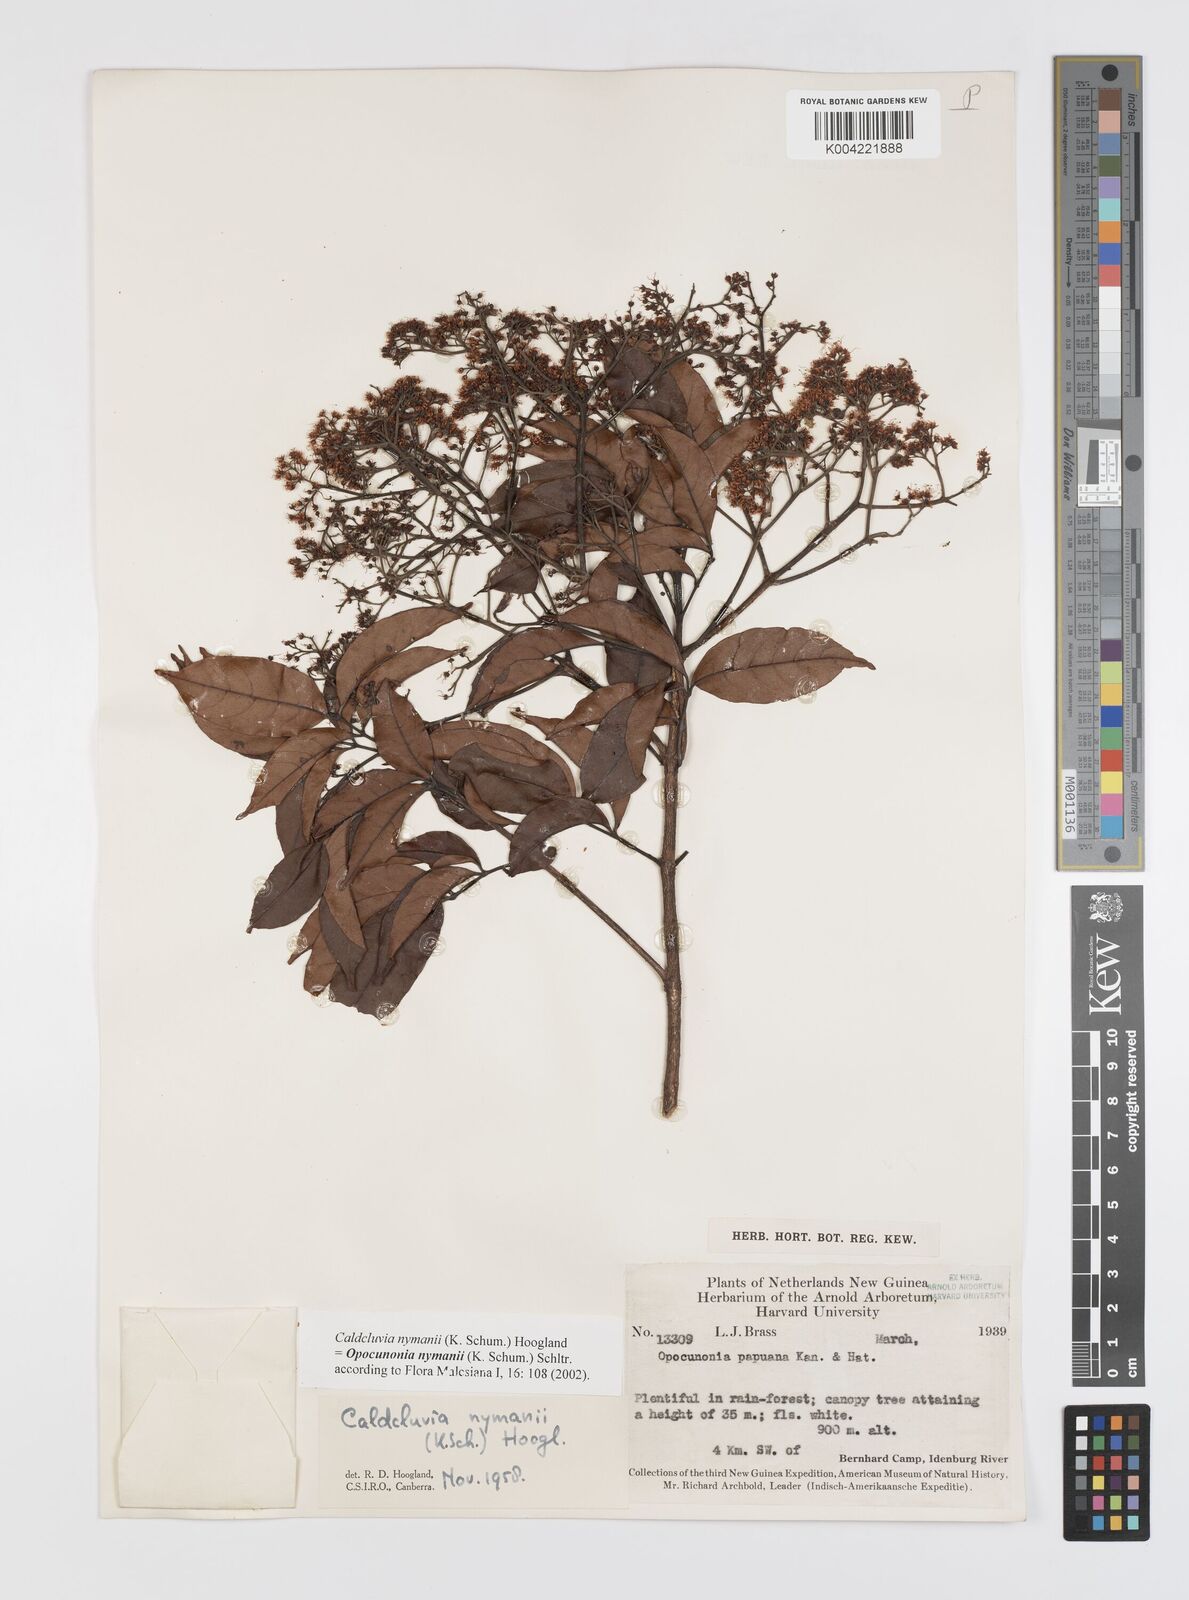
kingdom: Plantae
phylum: Tracheophyta
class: Magnoliopsida
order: Oxalidales
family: Cunoniaceae
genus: Opocunonia
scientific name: Opocunonia nymanii
